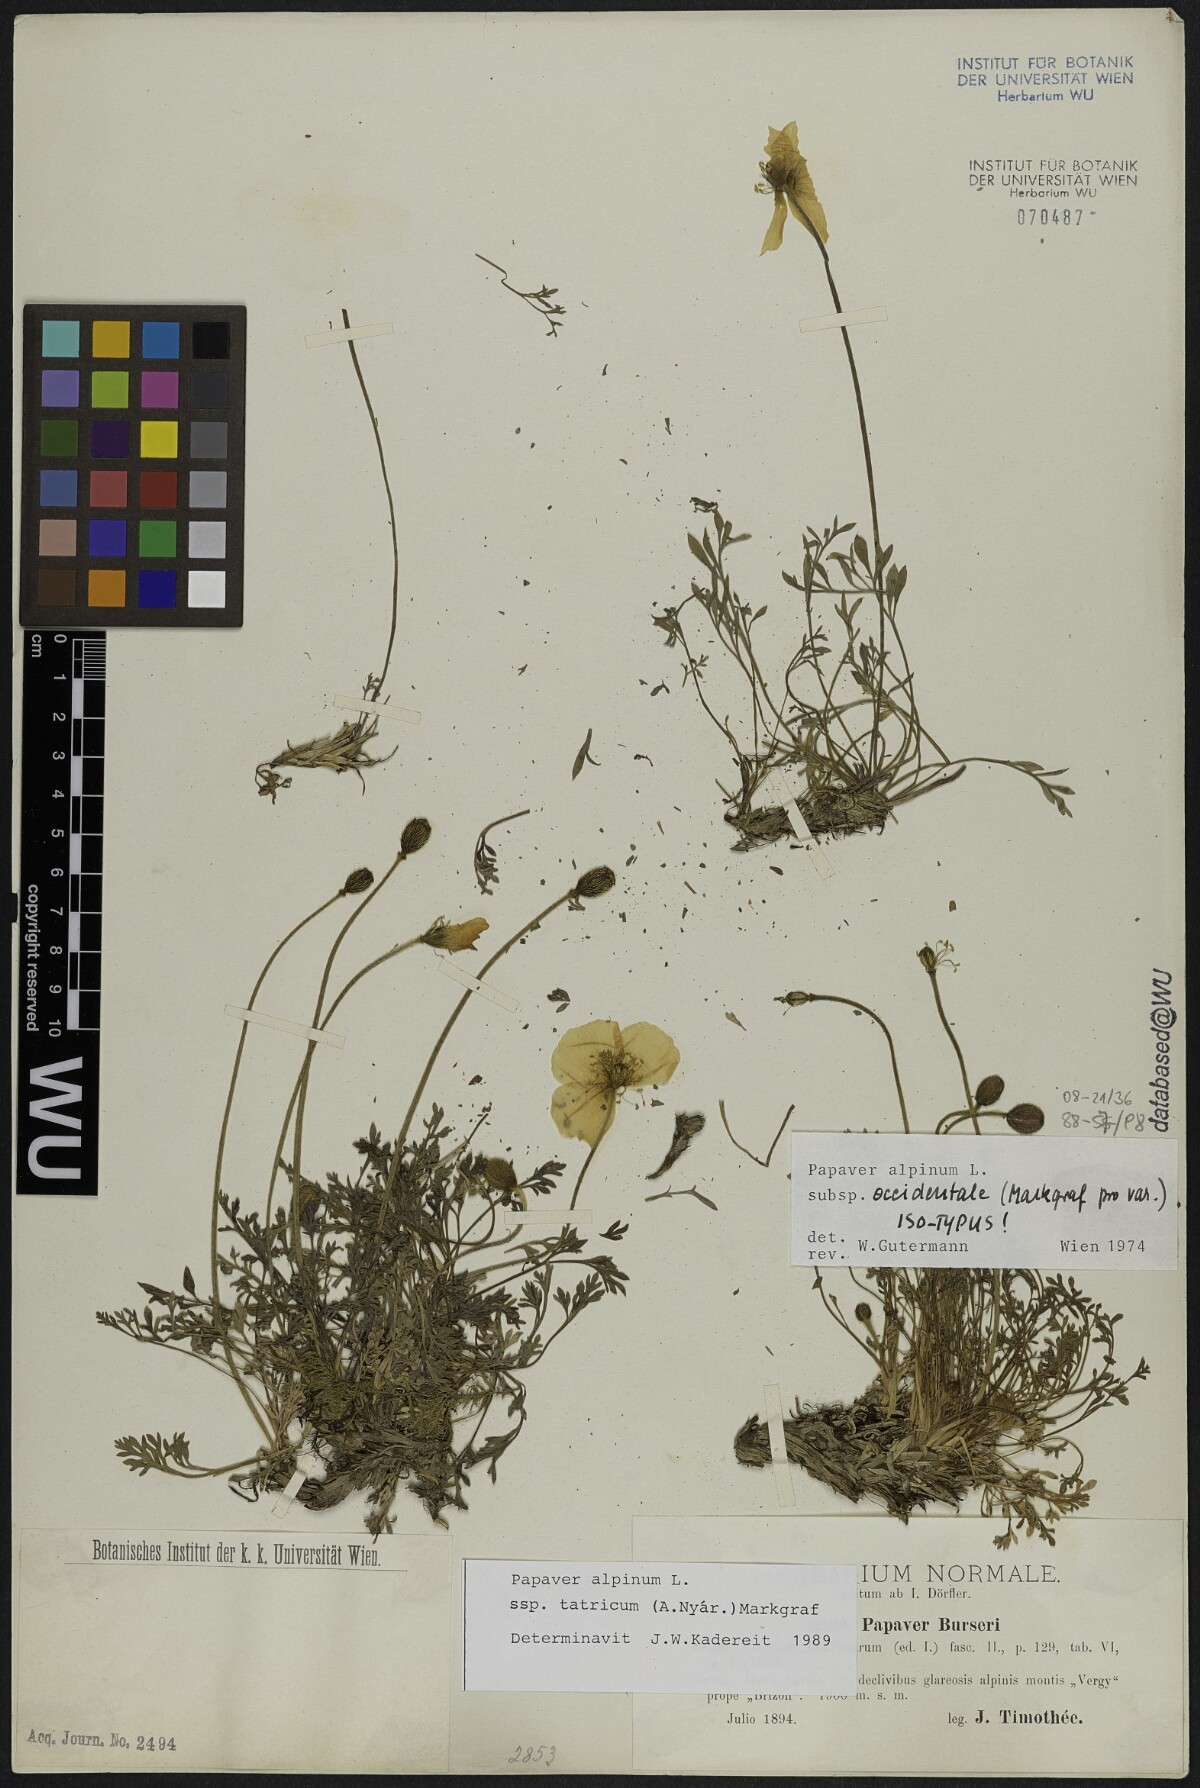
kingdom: Plantae
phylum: Tracheophyta
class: Magnoliopsida
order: Ranunculales
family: Papaveraceae
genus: Papaver
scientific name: Papaver alpinum
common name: Austrian poppy
